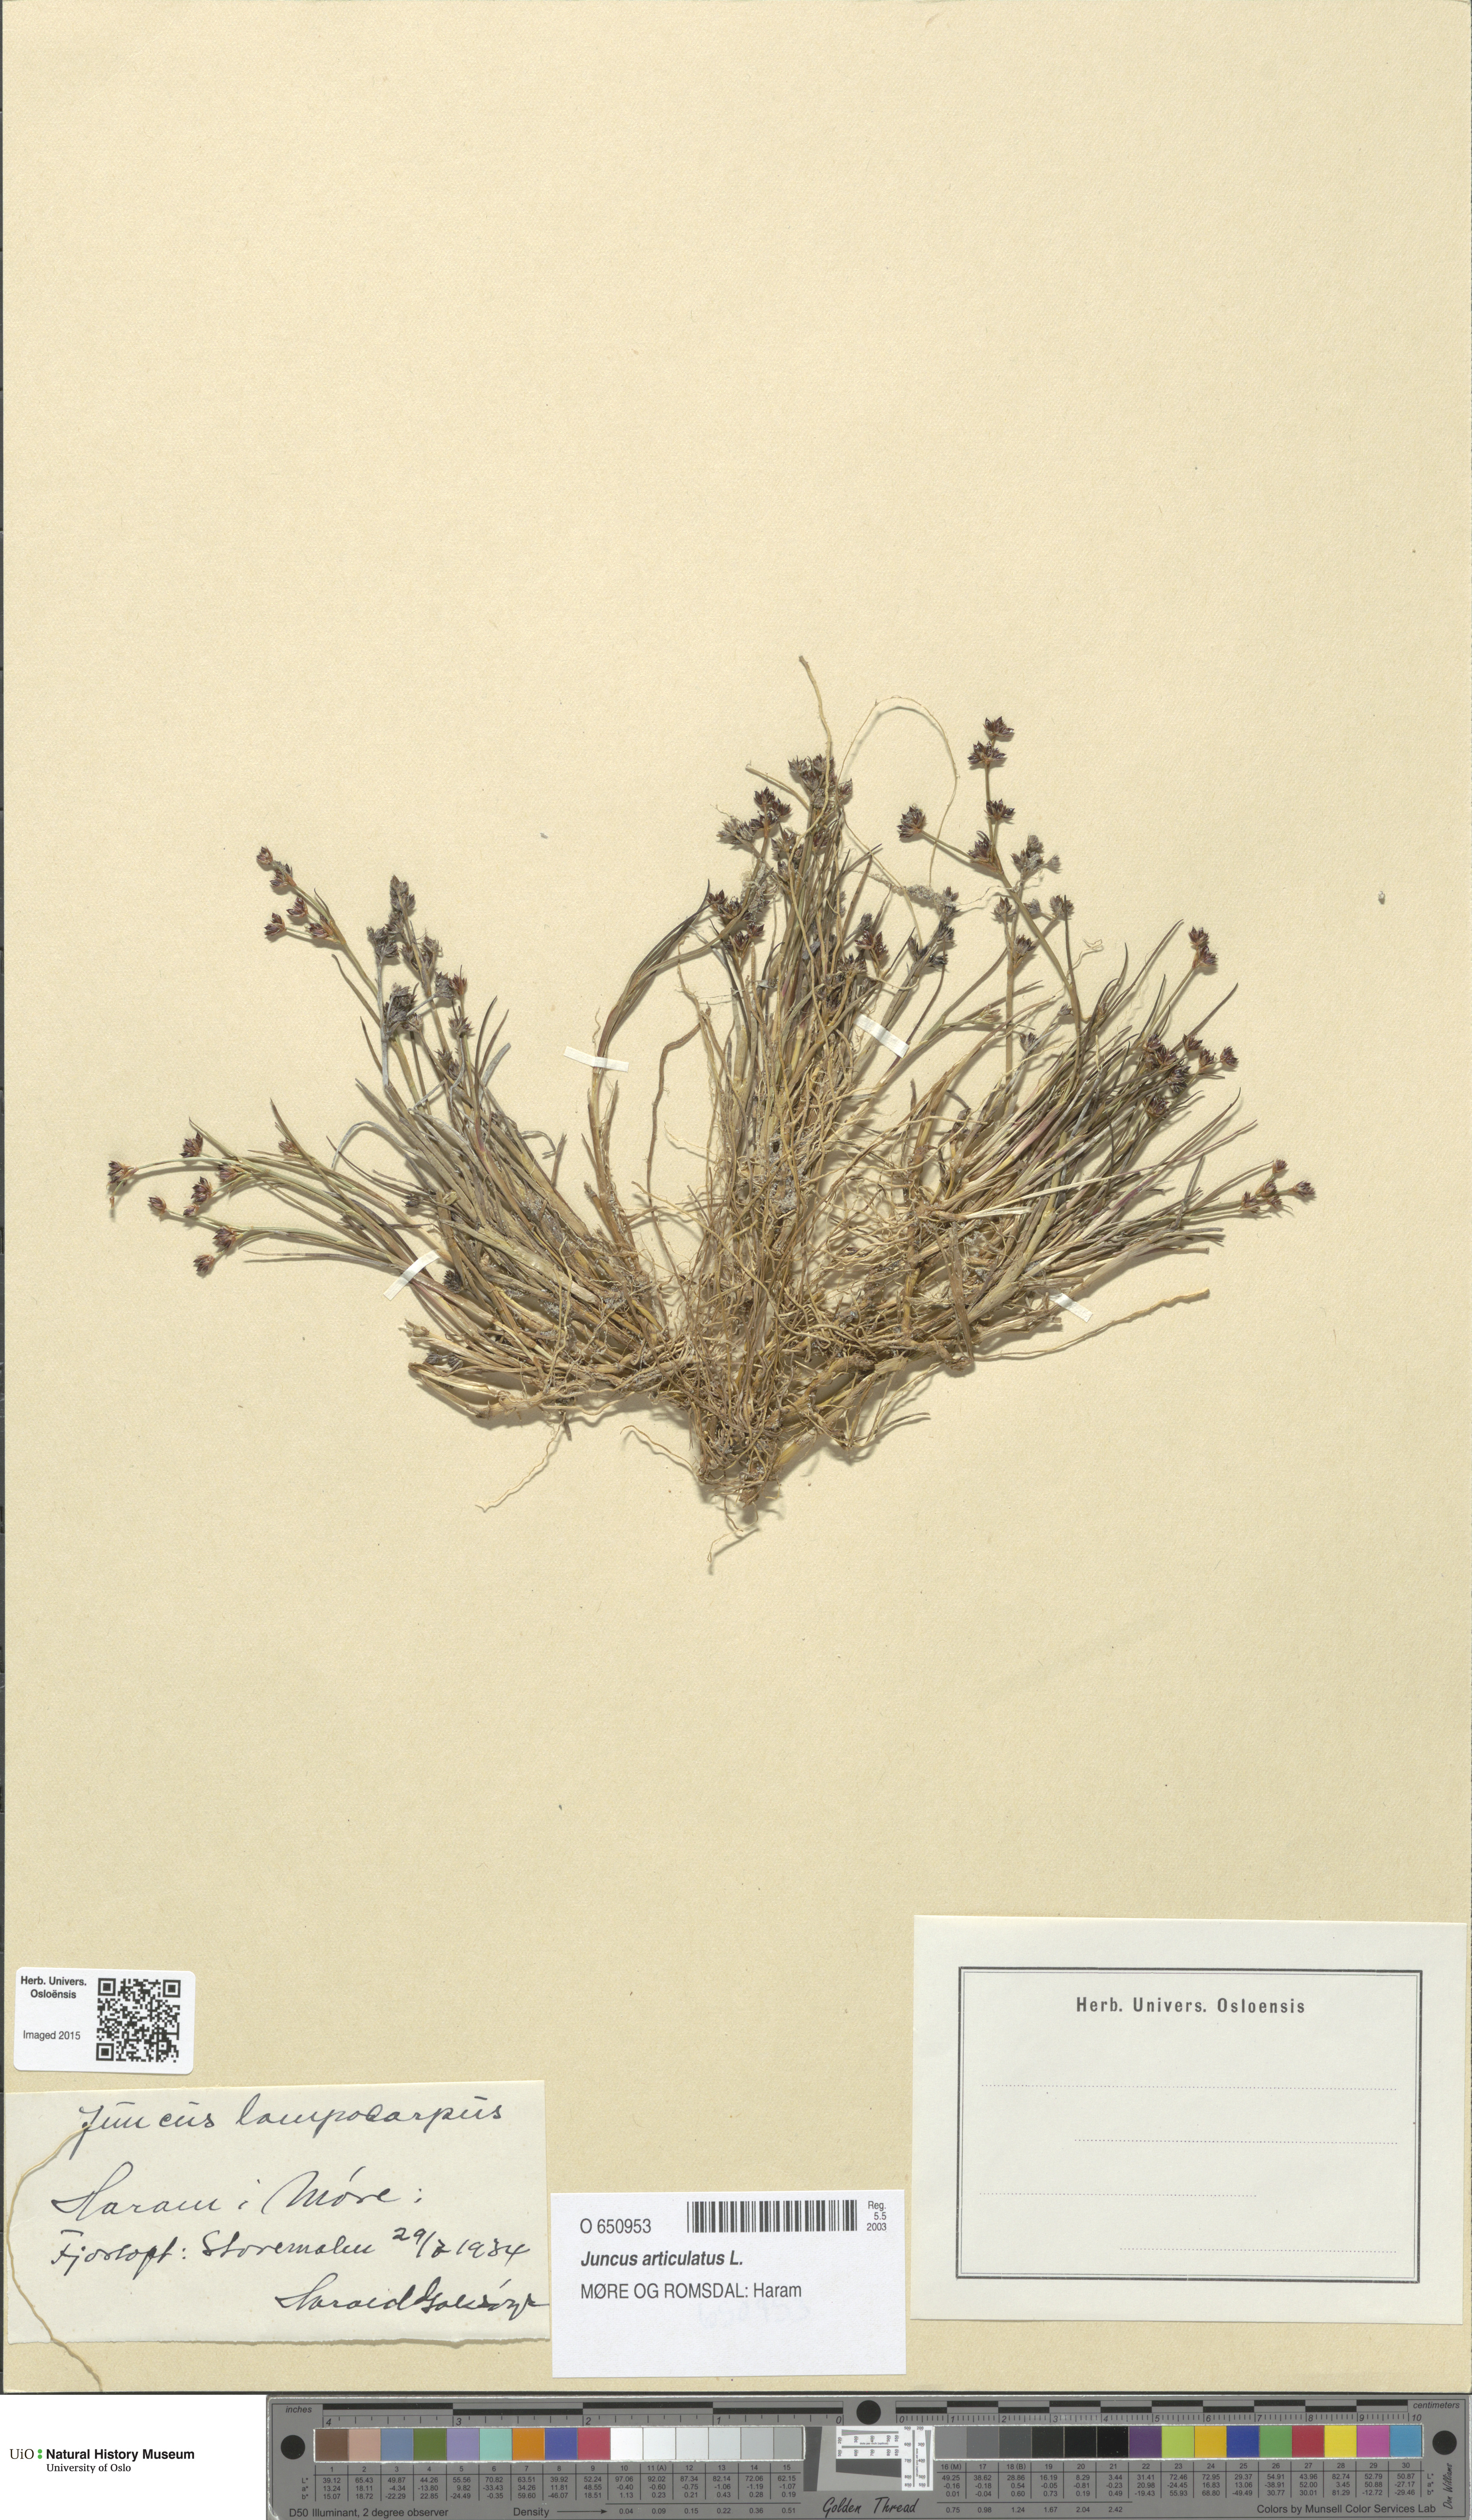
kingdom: Plantae
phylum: Tracheophyta
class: Liliopsida
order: Poales
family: Juncaceae
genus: Juncus
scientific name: Juncus articulatus
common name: Jointed rush
